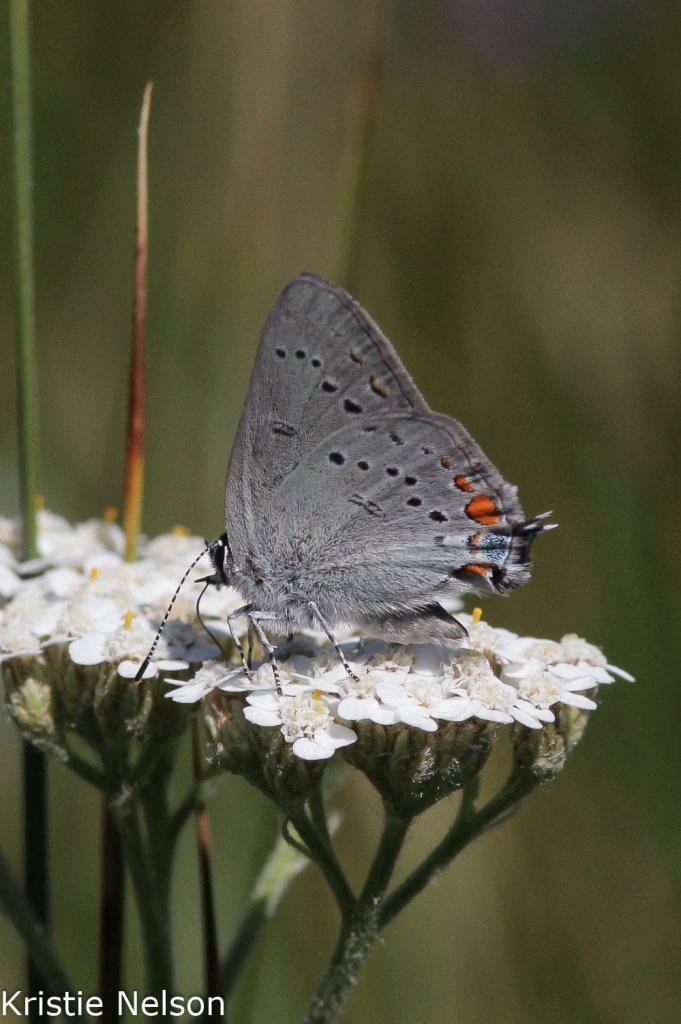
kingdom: Animalia
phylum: Arthropoda
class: Insecta
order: Lepidoptera
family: Lycaenidae
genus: Strymon
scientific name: Strymon acadica
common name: California Hairstreak
